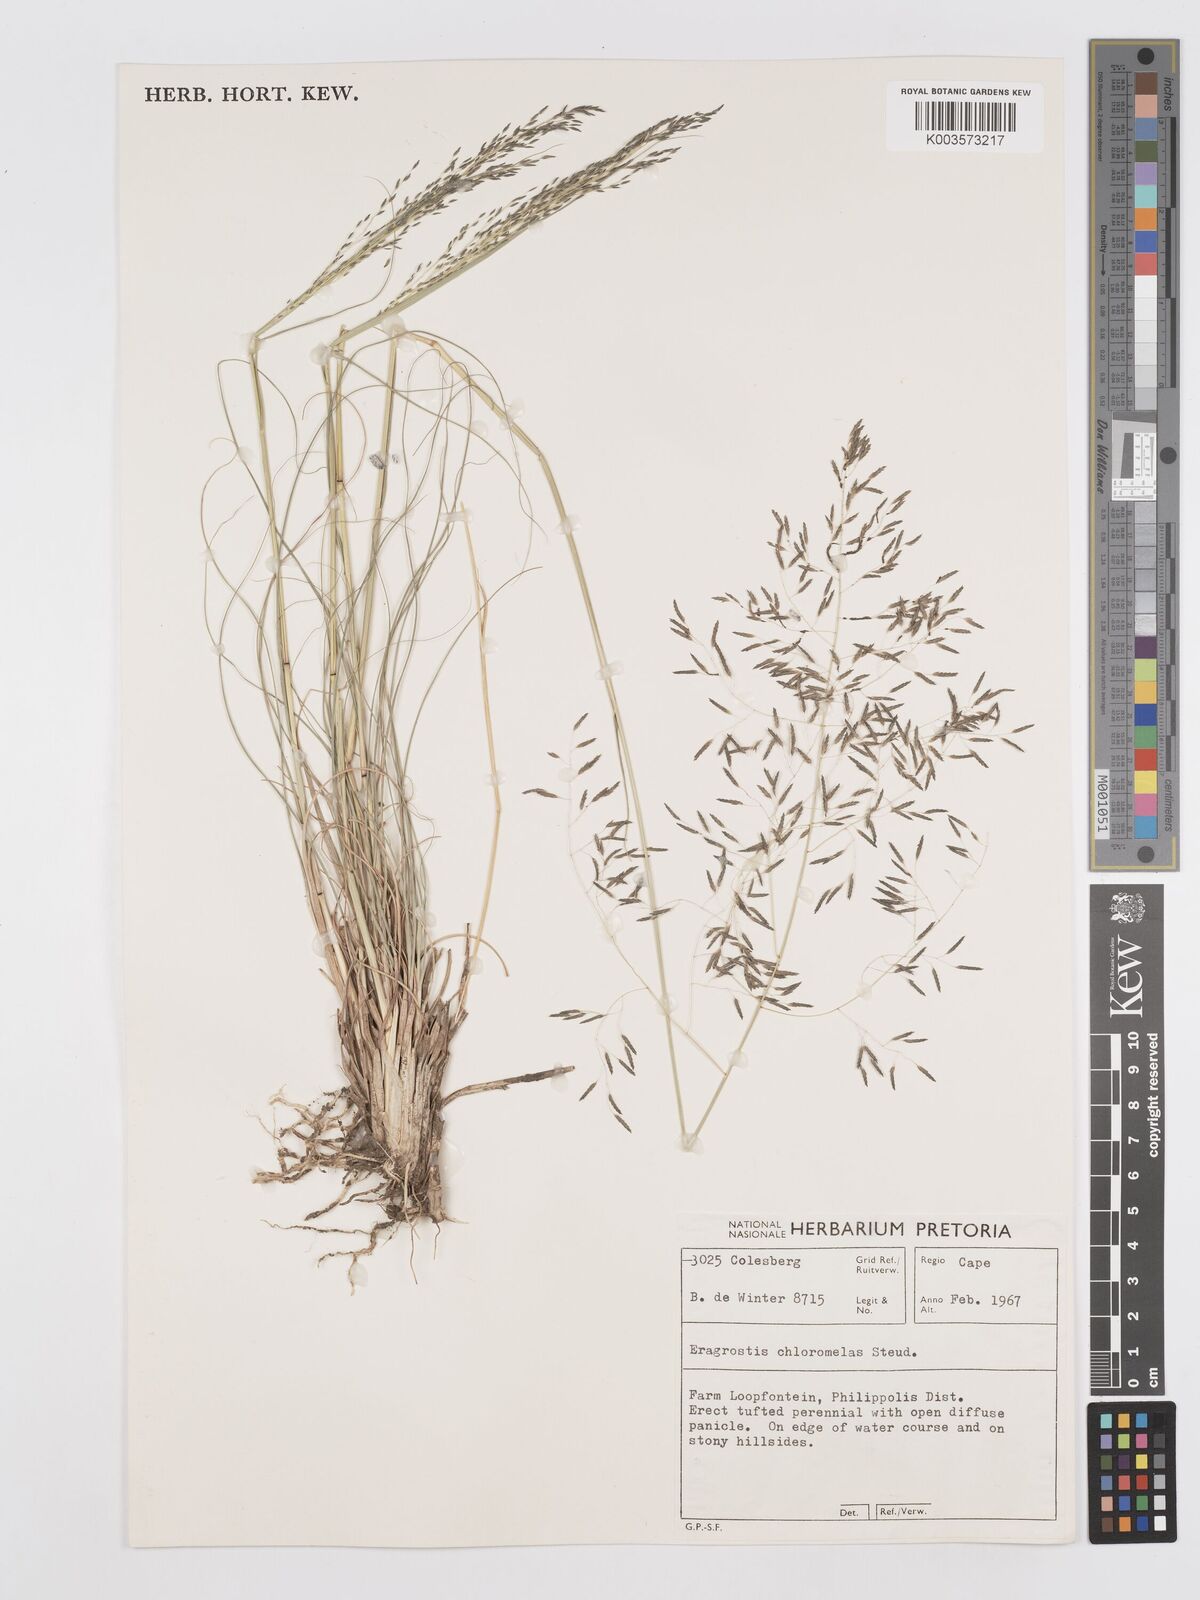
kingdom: Plantae
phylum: Tracheophyta
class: Liliopsida
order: Poales
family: Poaceae
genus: Eragrostis
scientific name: Eragrostis curvula
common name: African love-grass
